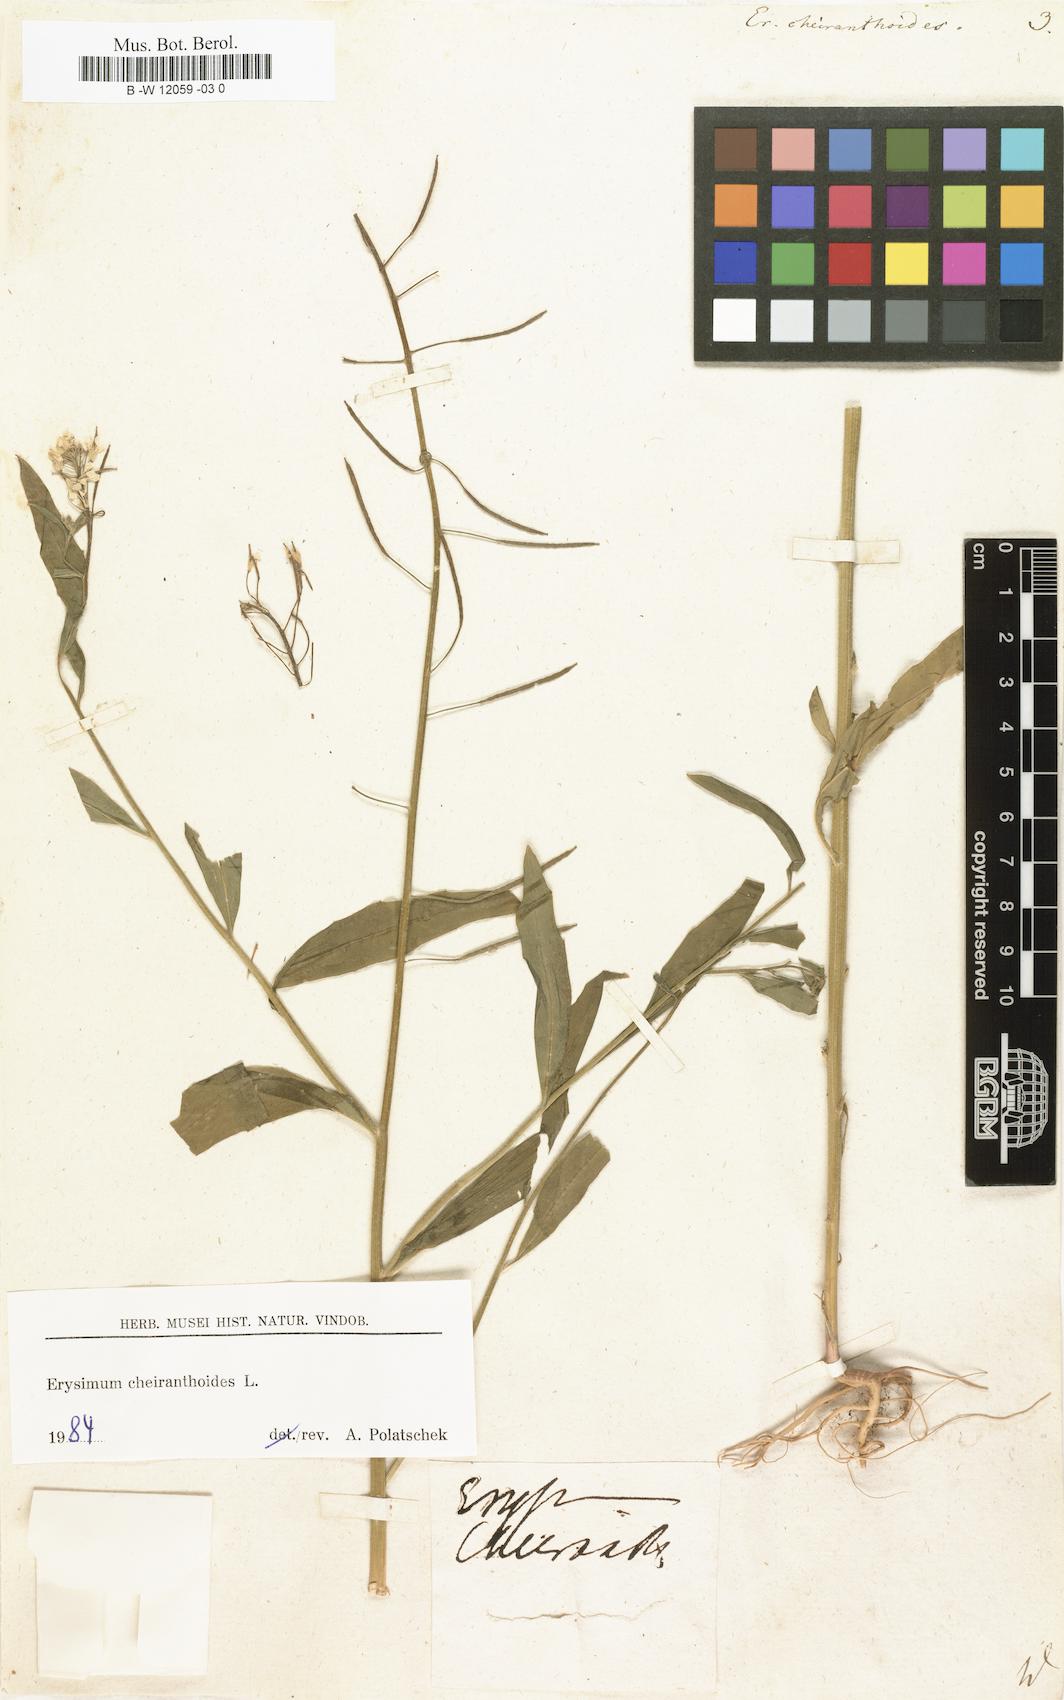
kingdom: Plantae
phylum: Tracheophyta
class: Magnoliopsida
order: Brassicales
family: Brassicaceae
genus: Erysimum
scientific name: Erysimum cheiranthoides
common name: Treacle mustard
